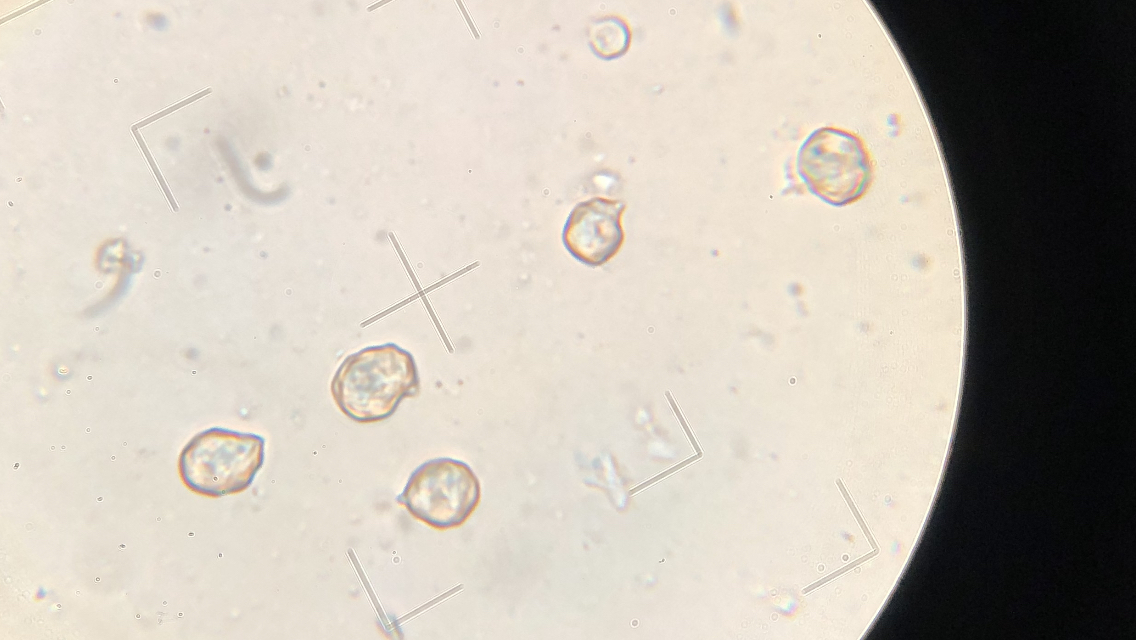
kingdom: Fungi
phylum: Basidiomycota
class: Agaricomycetes
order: Agaricales
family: Entolomataceae
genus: Entoloma
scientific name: Entoloma clypeatum
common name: flammet rødblad
